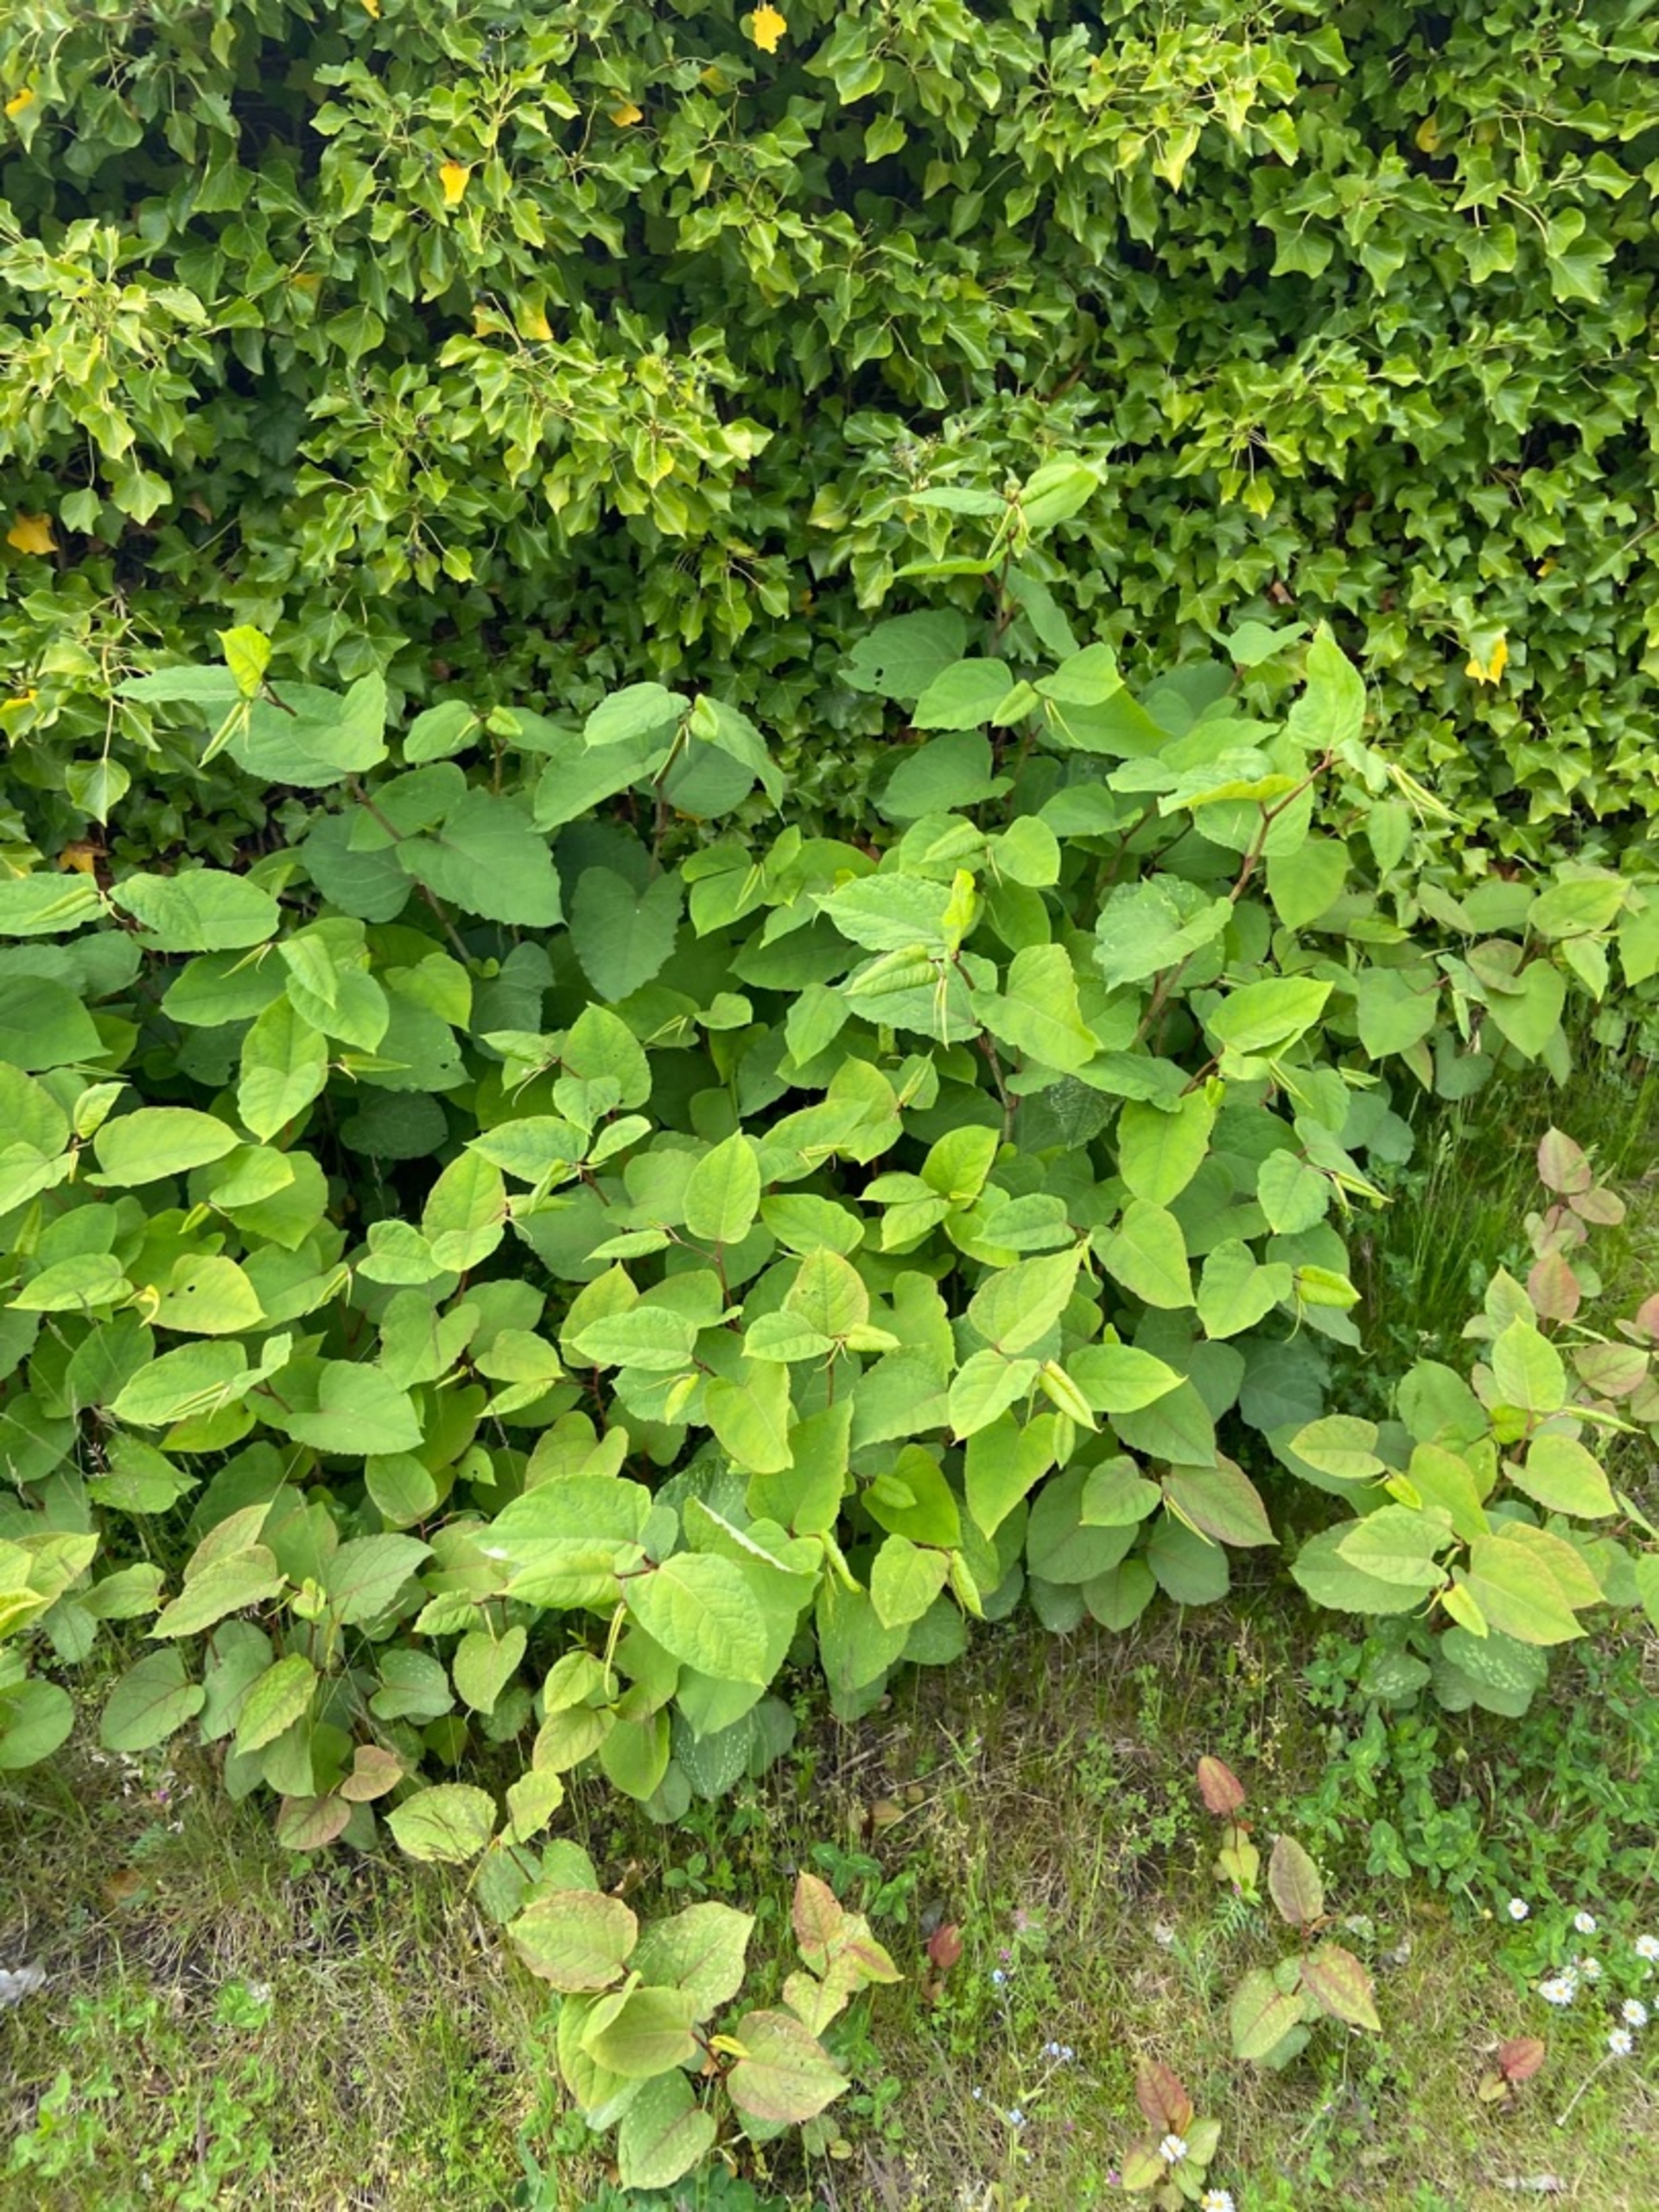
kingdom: Plantae
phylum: Tracheophyta
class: Magnoliopsida
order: Caryophyllales
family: Polygonaceae
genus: Reynoutria
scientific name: Reynoutria japonica
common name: Japan-pileurt
